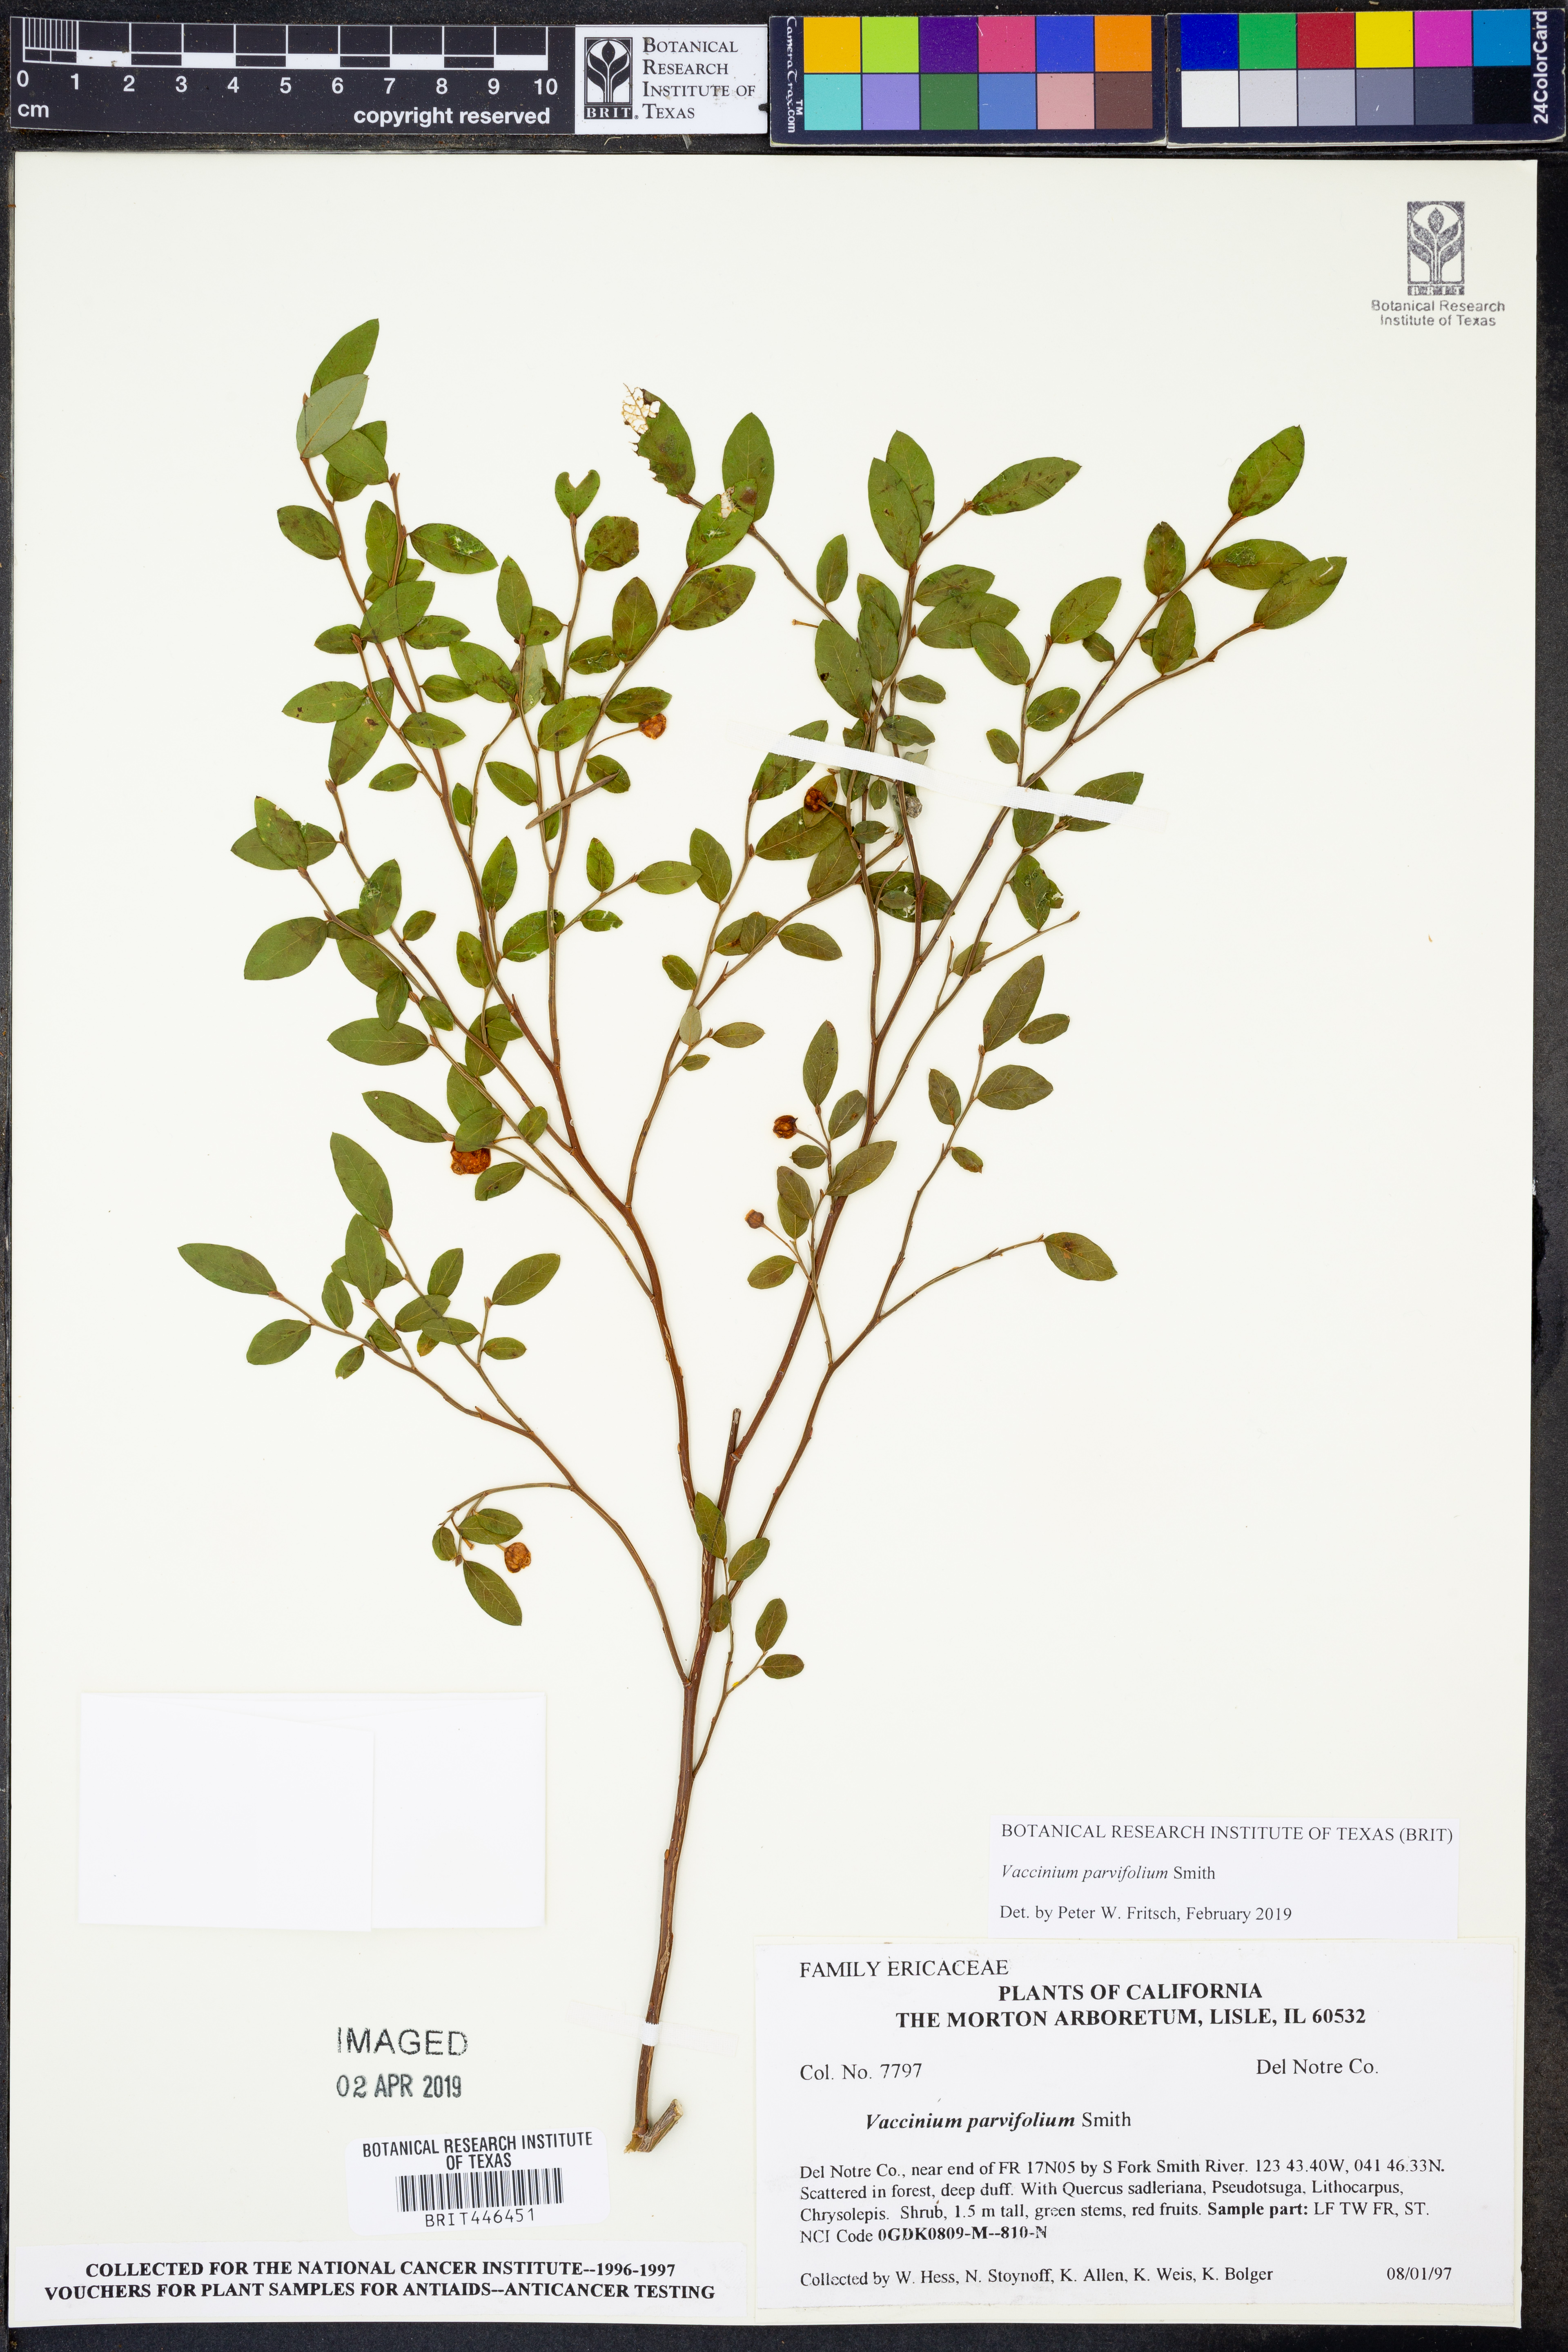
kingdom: Plantae
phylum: Tracheophyta
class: Magnoliopsida
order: Ericales
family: Ericaceae
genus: Vaccinium
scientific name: Vaccinium parvifolium
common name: Red-huckleberry
